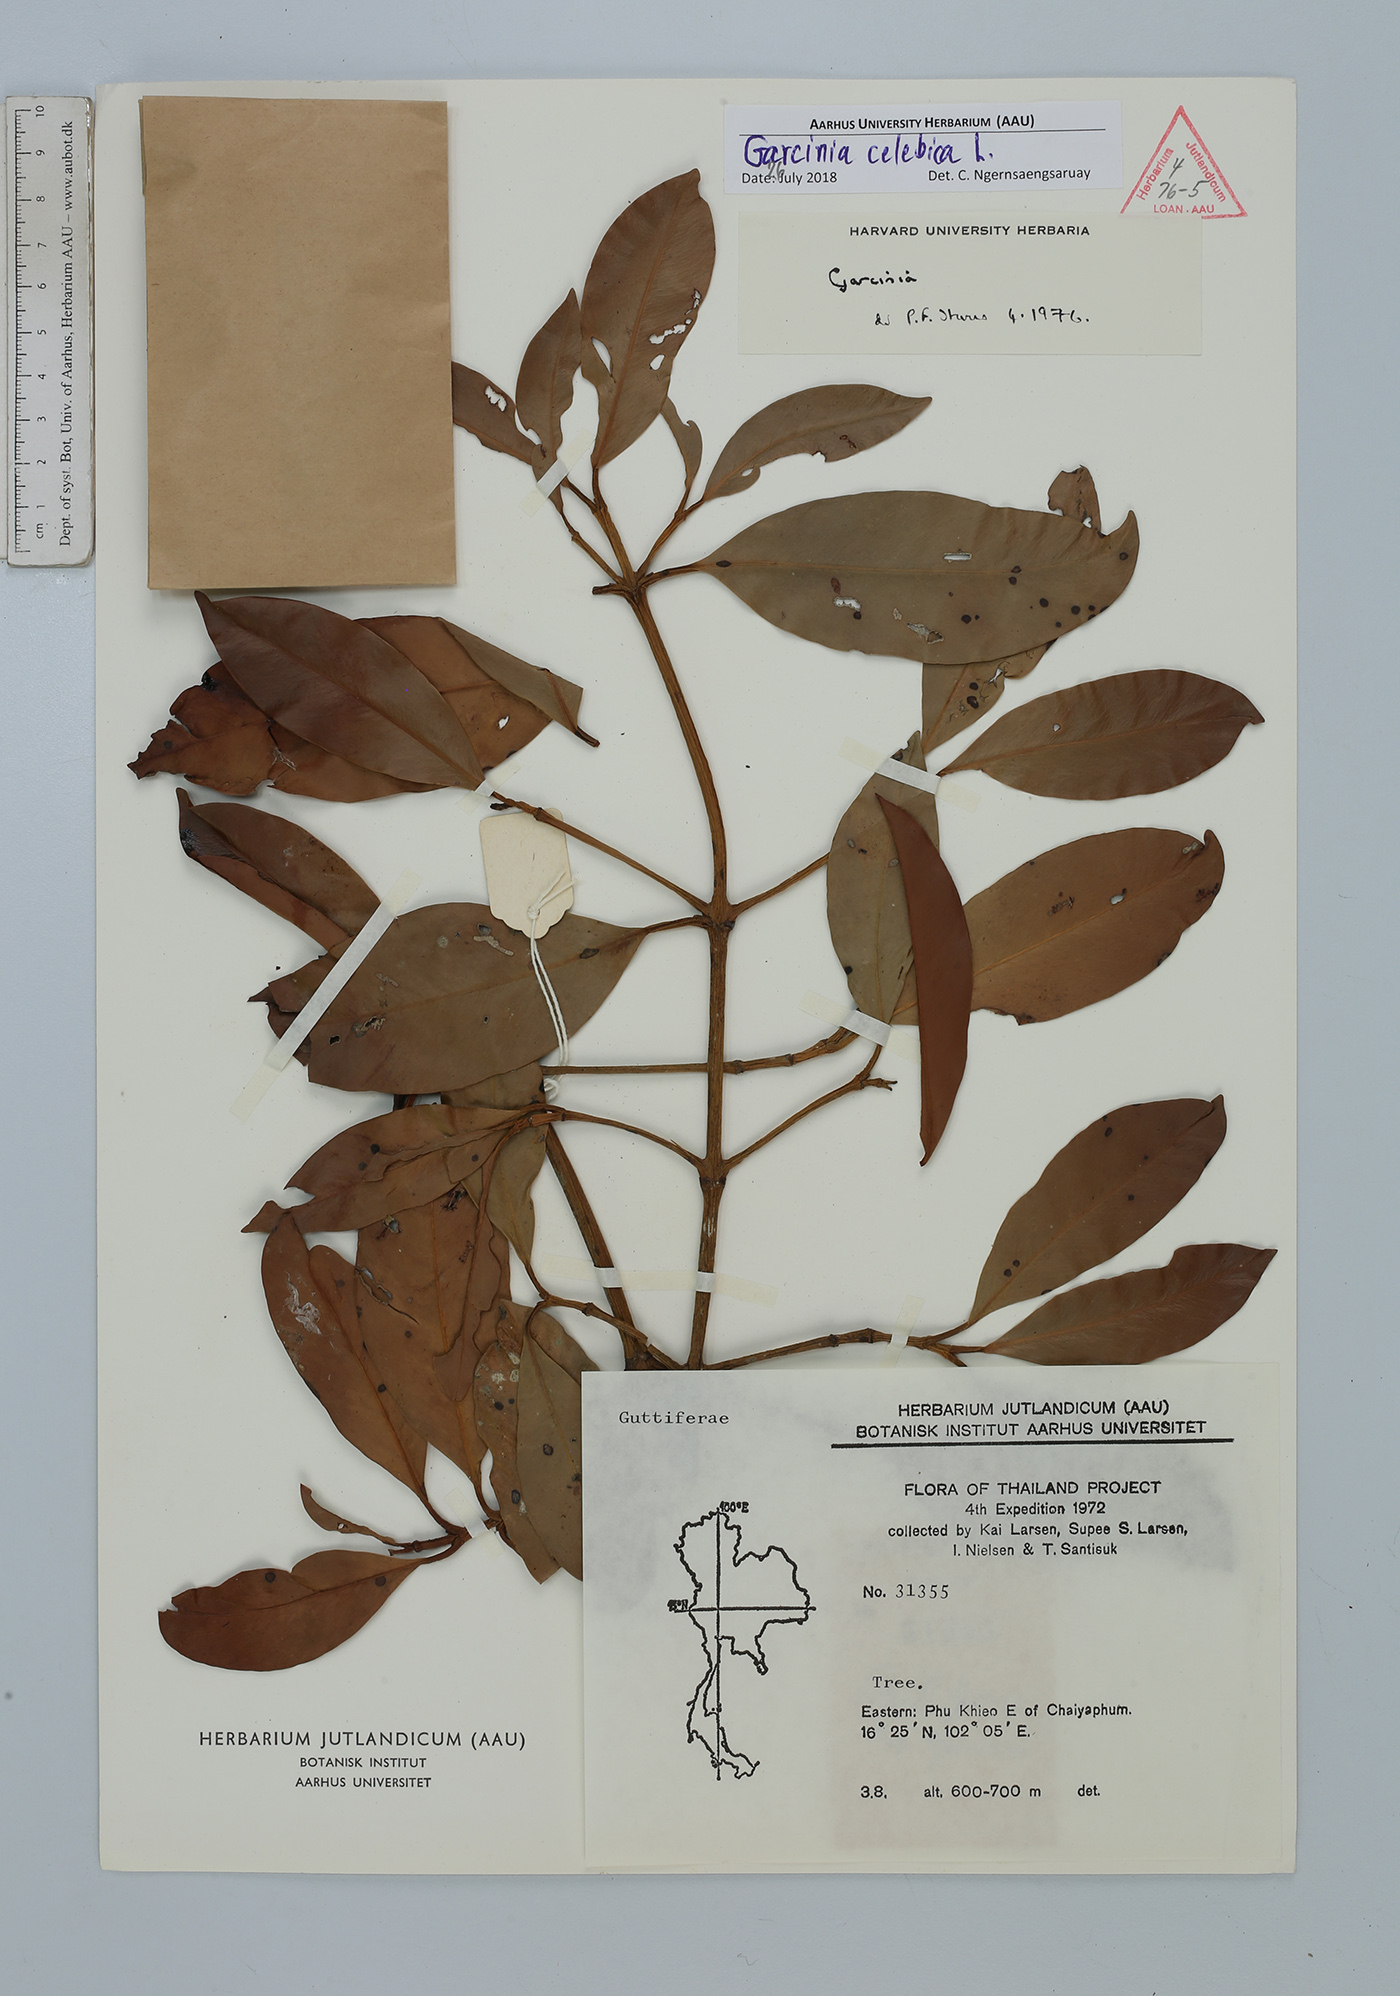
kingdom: Plantae
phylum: Tracheophyta
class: Magnoliopsida
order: Malpighiales
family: Clusiaceae
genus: Garcinia
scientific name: Garcinia celebica
